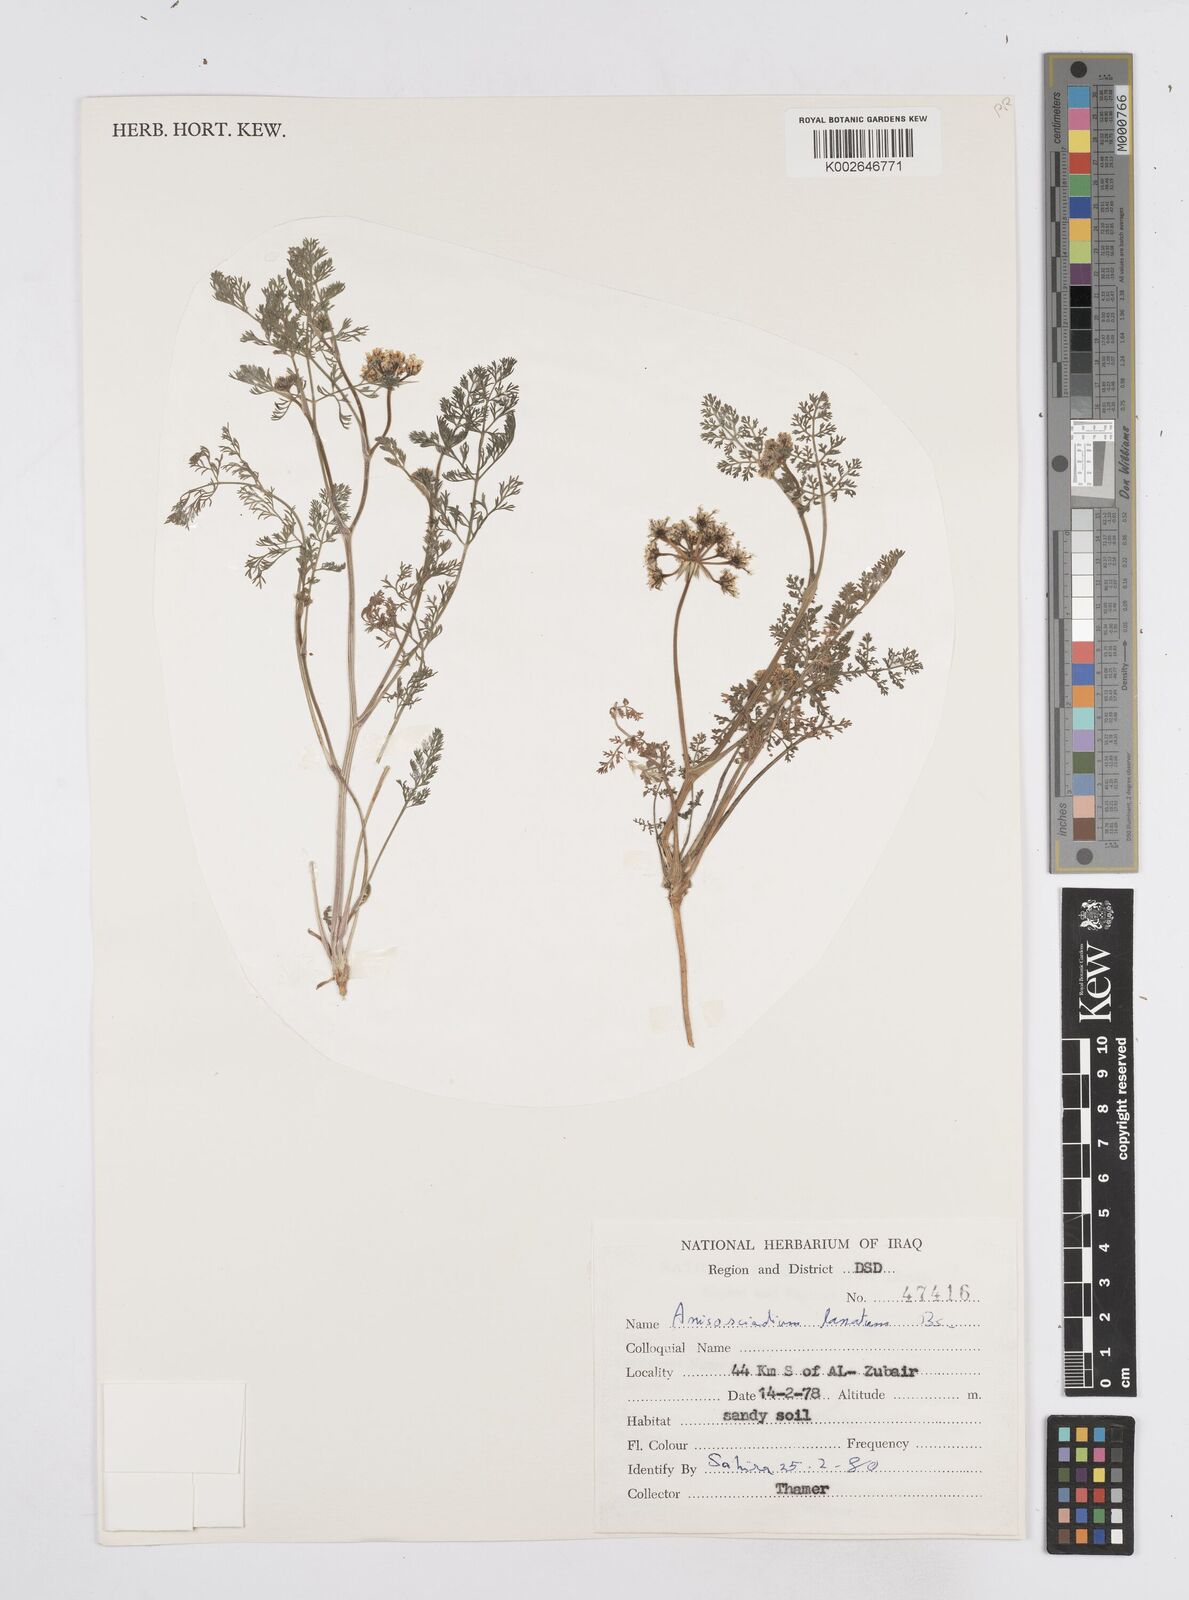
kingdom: Plantae
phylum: Tracheophyta
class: Magnoliopsida
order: Apiales
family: Apiaceae
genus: Anisosciadium
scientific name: Anisosciadium lanatum
